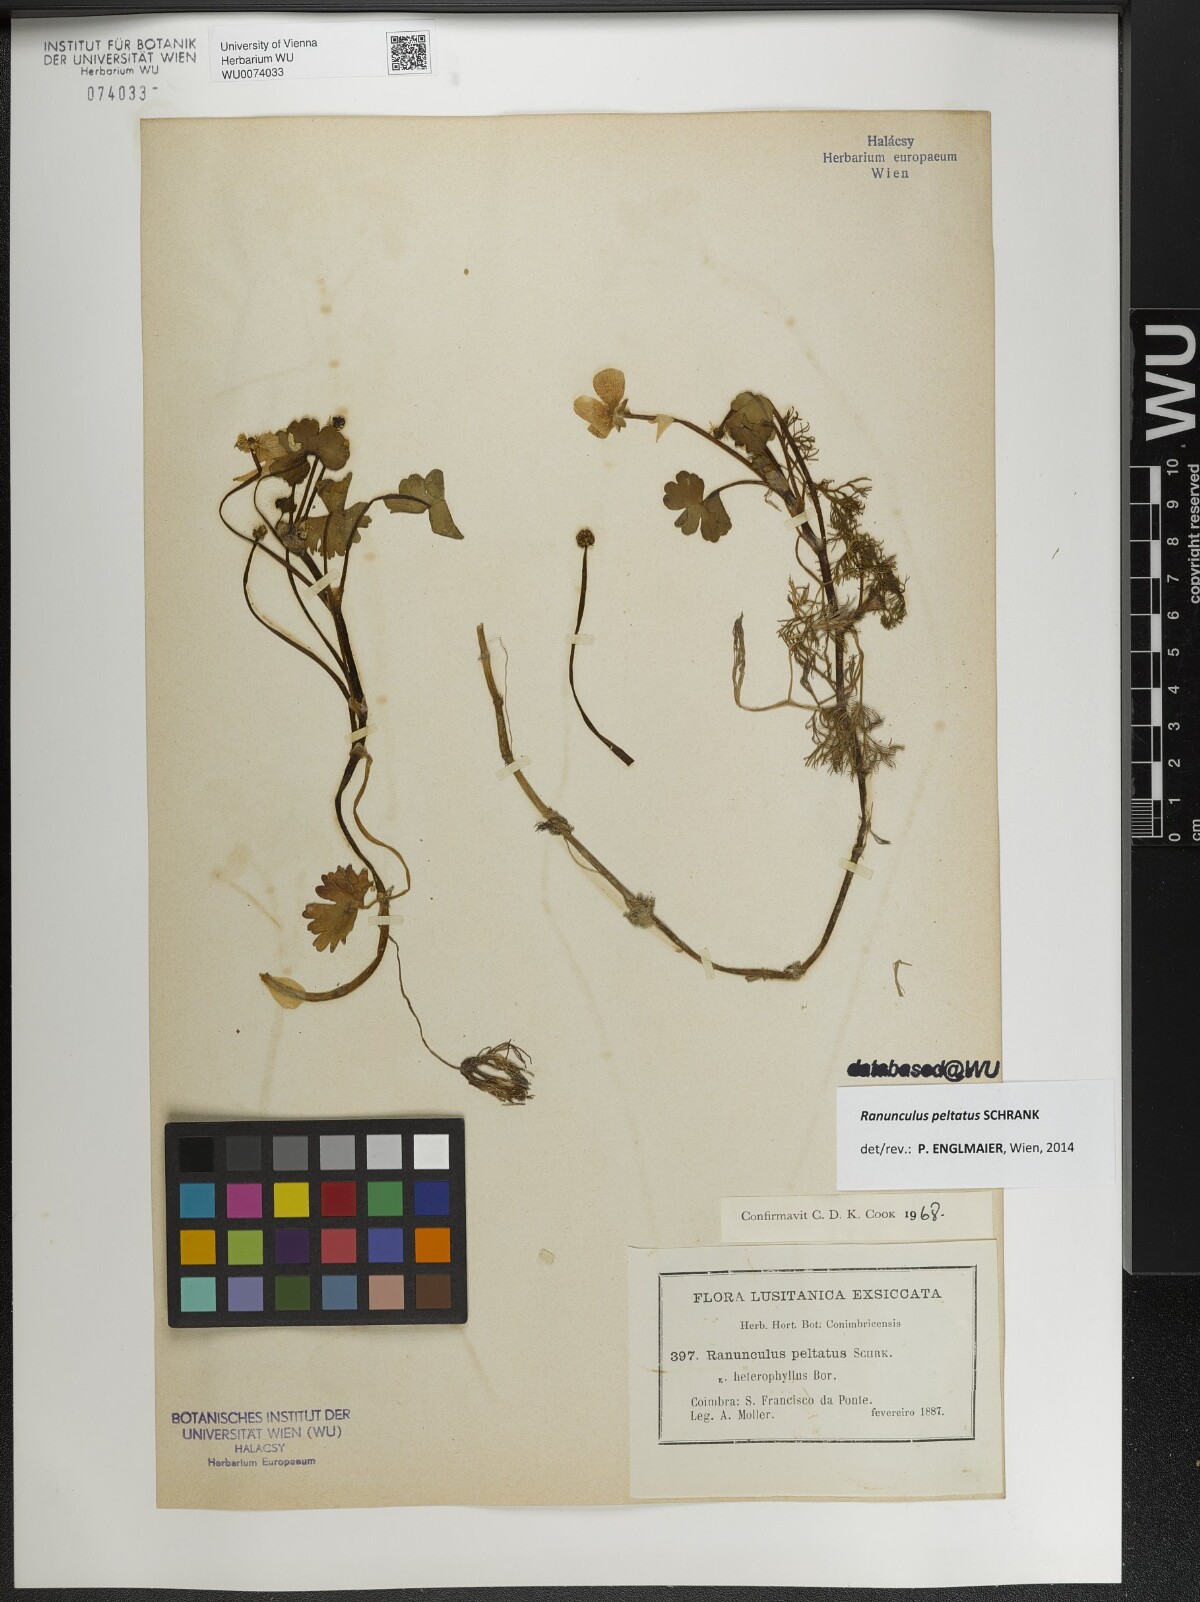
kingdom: Plantae
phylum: Tracheophyta
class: Magnoliopsida
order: Ranunculales
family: Ranunculaceae
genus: Ranunculus
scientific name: Ranunculus peltatus
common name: Pond water-crowfoot
